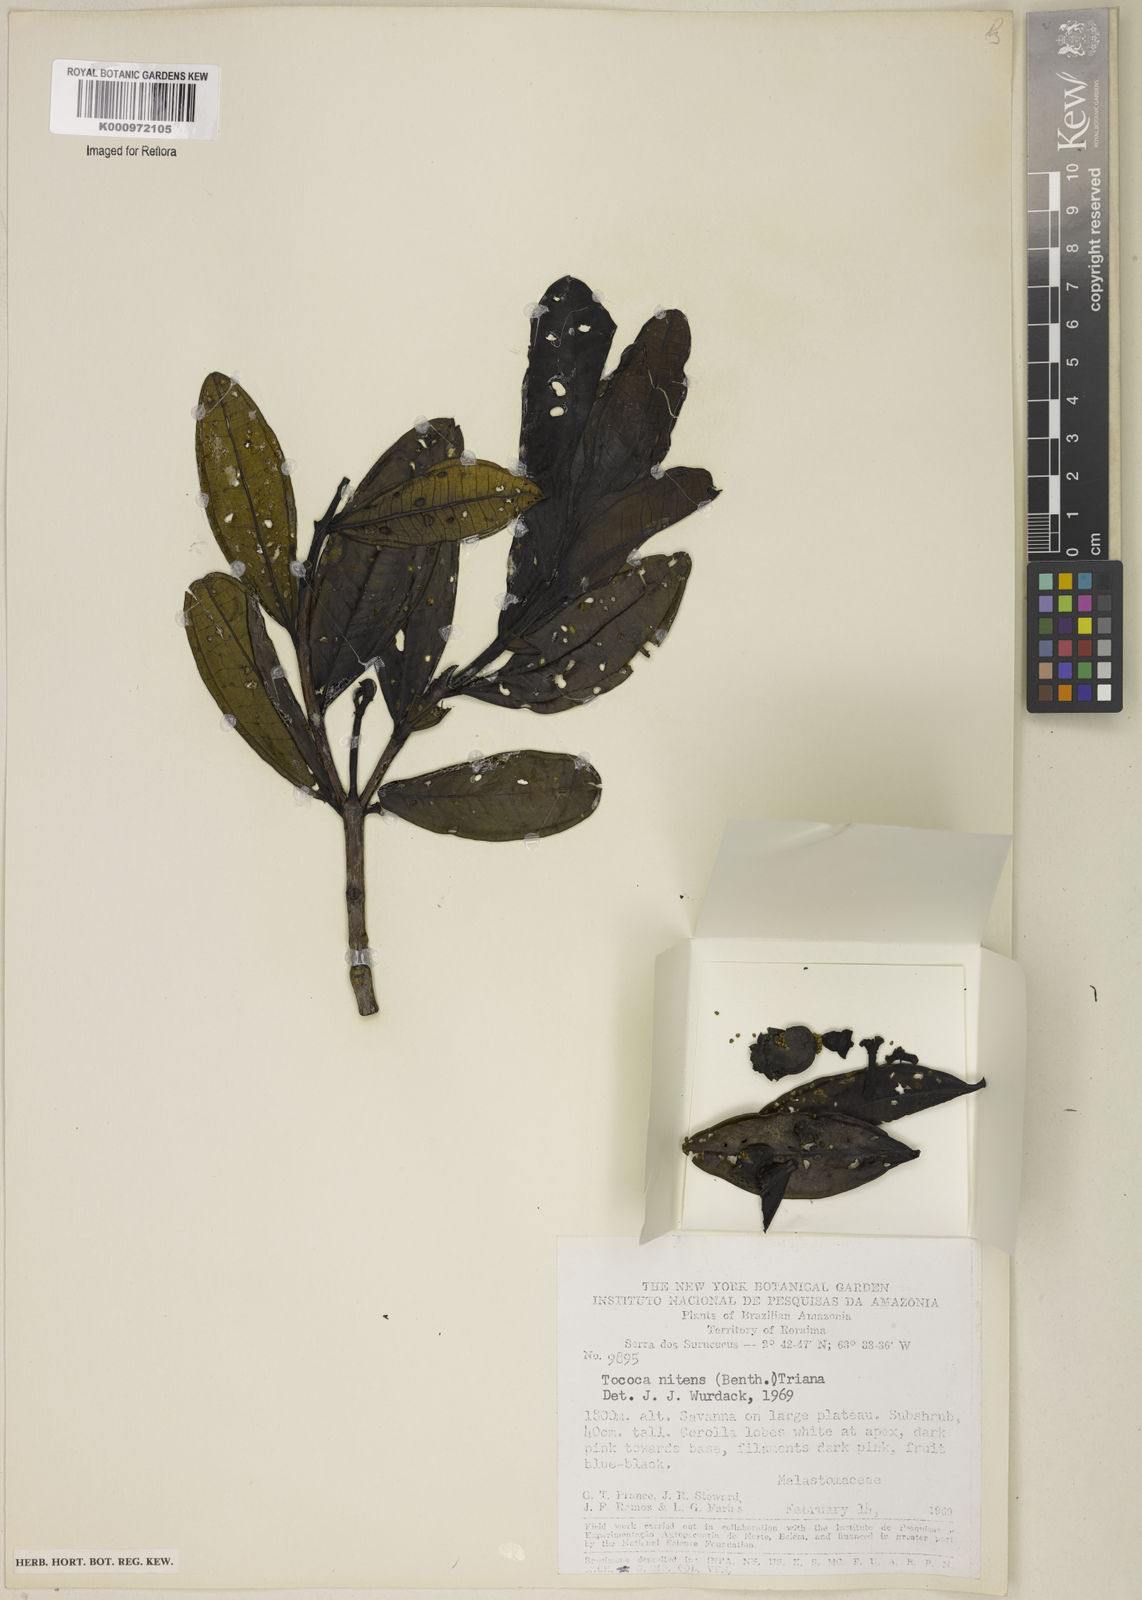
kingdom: Plantae
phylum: Tracheophyta
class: Magnoliopsida
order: Myrtales
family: Melastomataceae
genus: Miconia
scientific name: Miconia nitens
